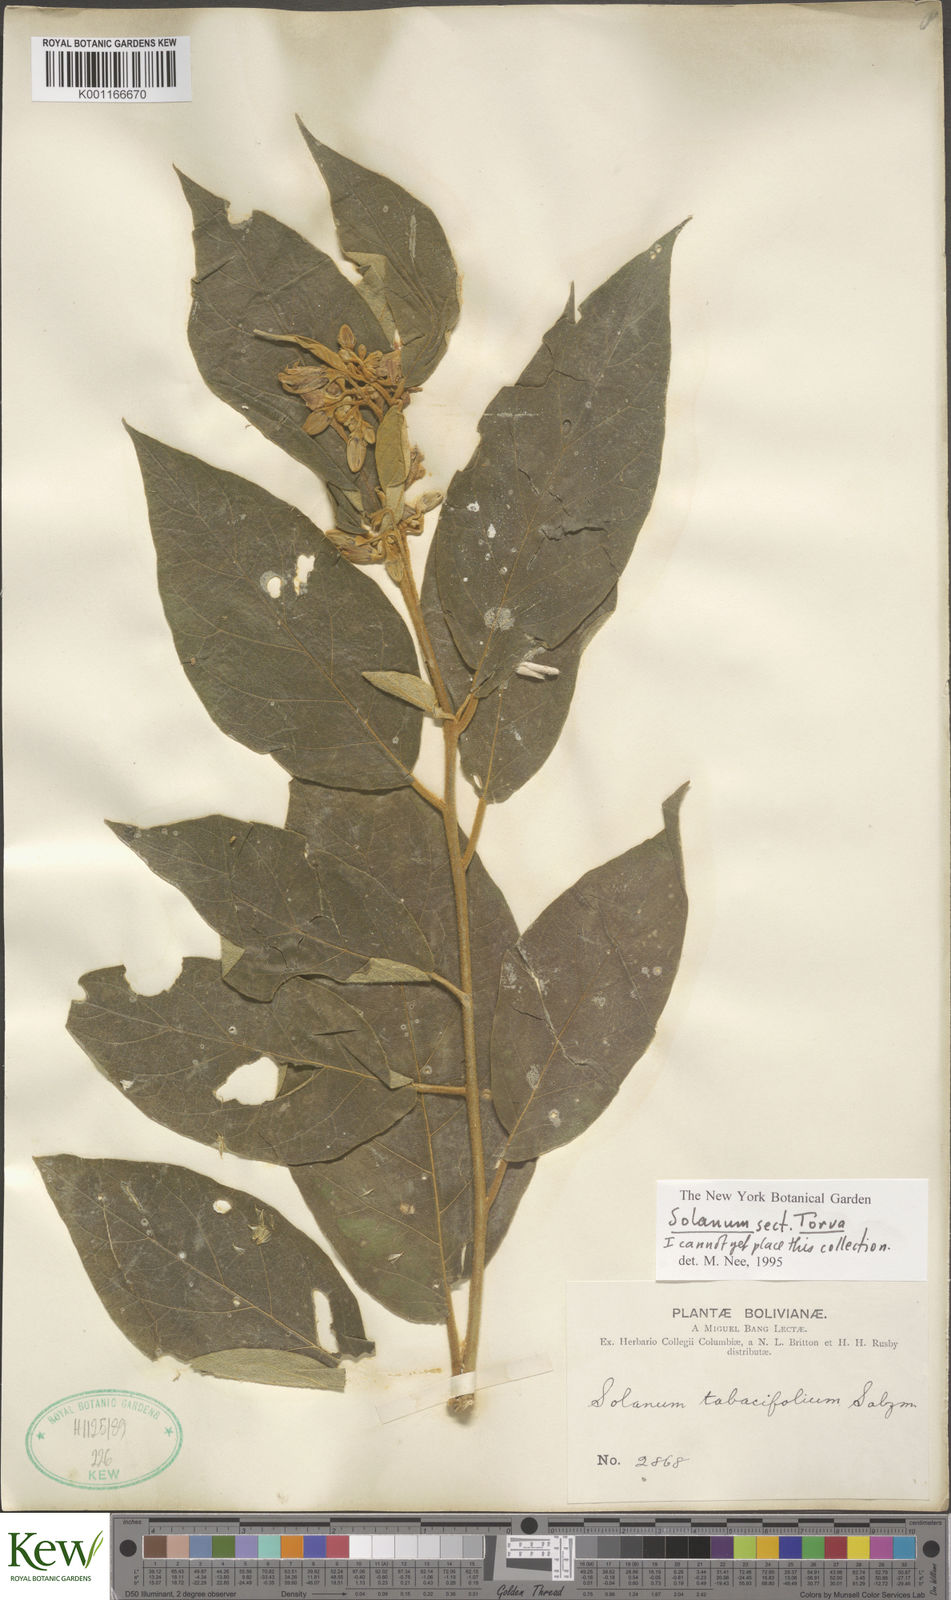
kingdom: Plantae
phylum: Tracheophyta
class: Magnoliopsida
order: Solanales
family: Solanaceae
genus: Solanum
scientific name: Solanum
